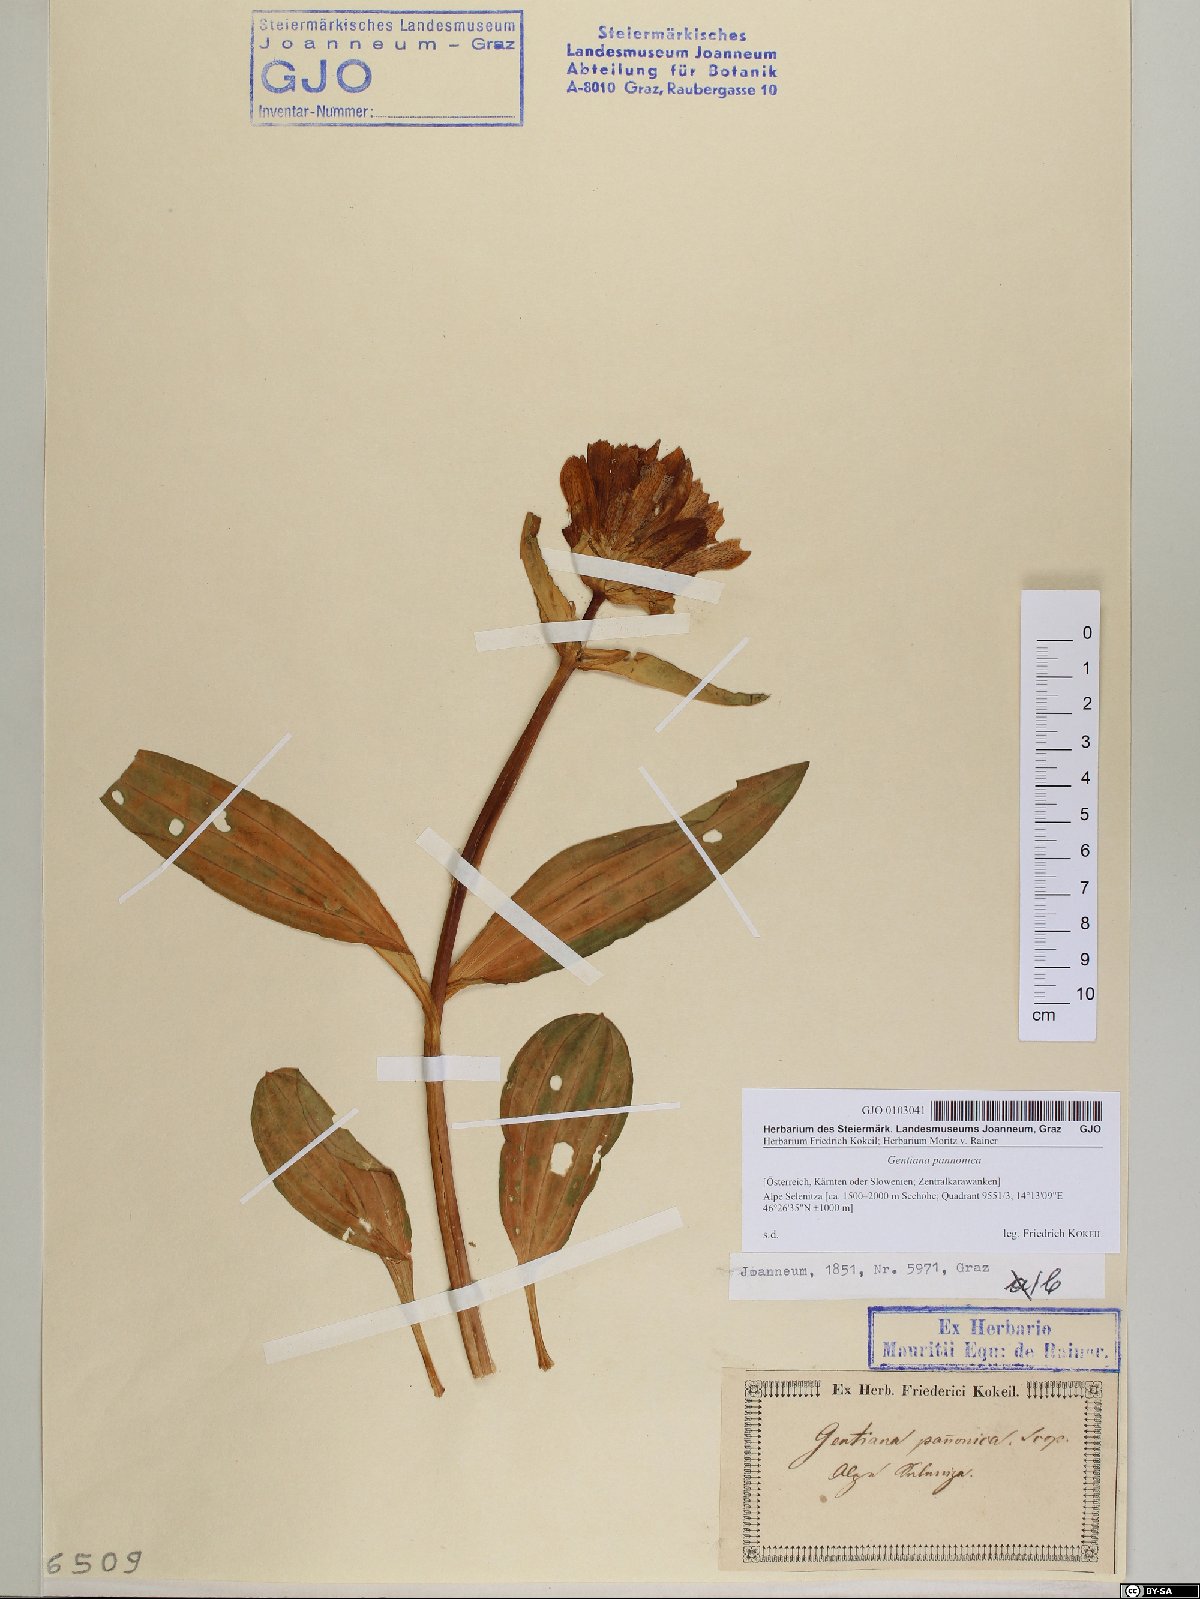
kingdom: Plantae
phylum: Tracheophyta
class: Magnoliopsida
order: Gentianales
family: Gentianaceae
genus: Gentiana
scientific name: Gentiana pannonica
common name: Hungarian gentian
